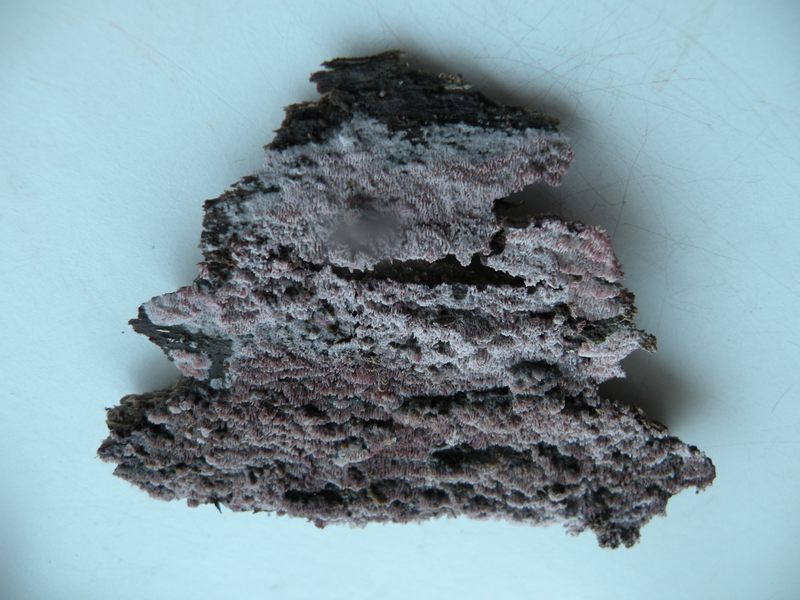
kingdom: Fungi
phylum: Basidiomycota
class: Agaricomycetes
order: Polyporales
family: Irpicaceae
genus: Ceriporia
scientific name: Ceriporia excelsa
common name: lilla voksporesvamp
